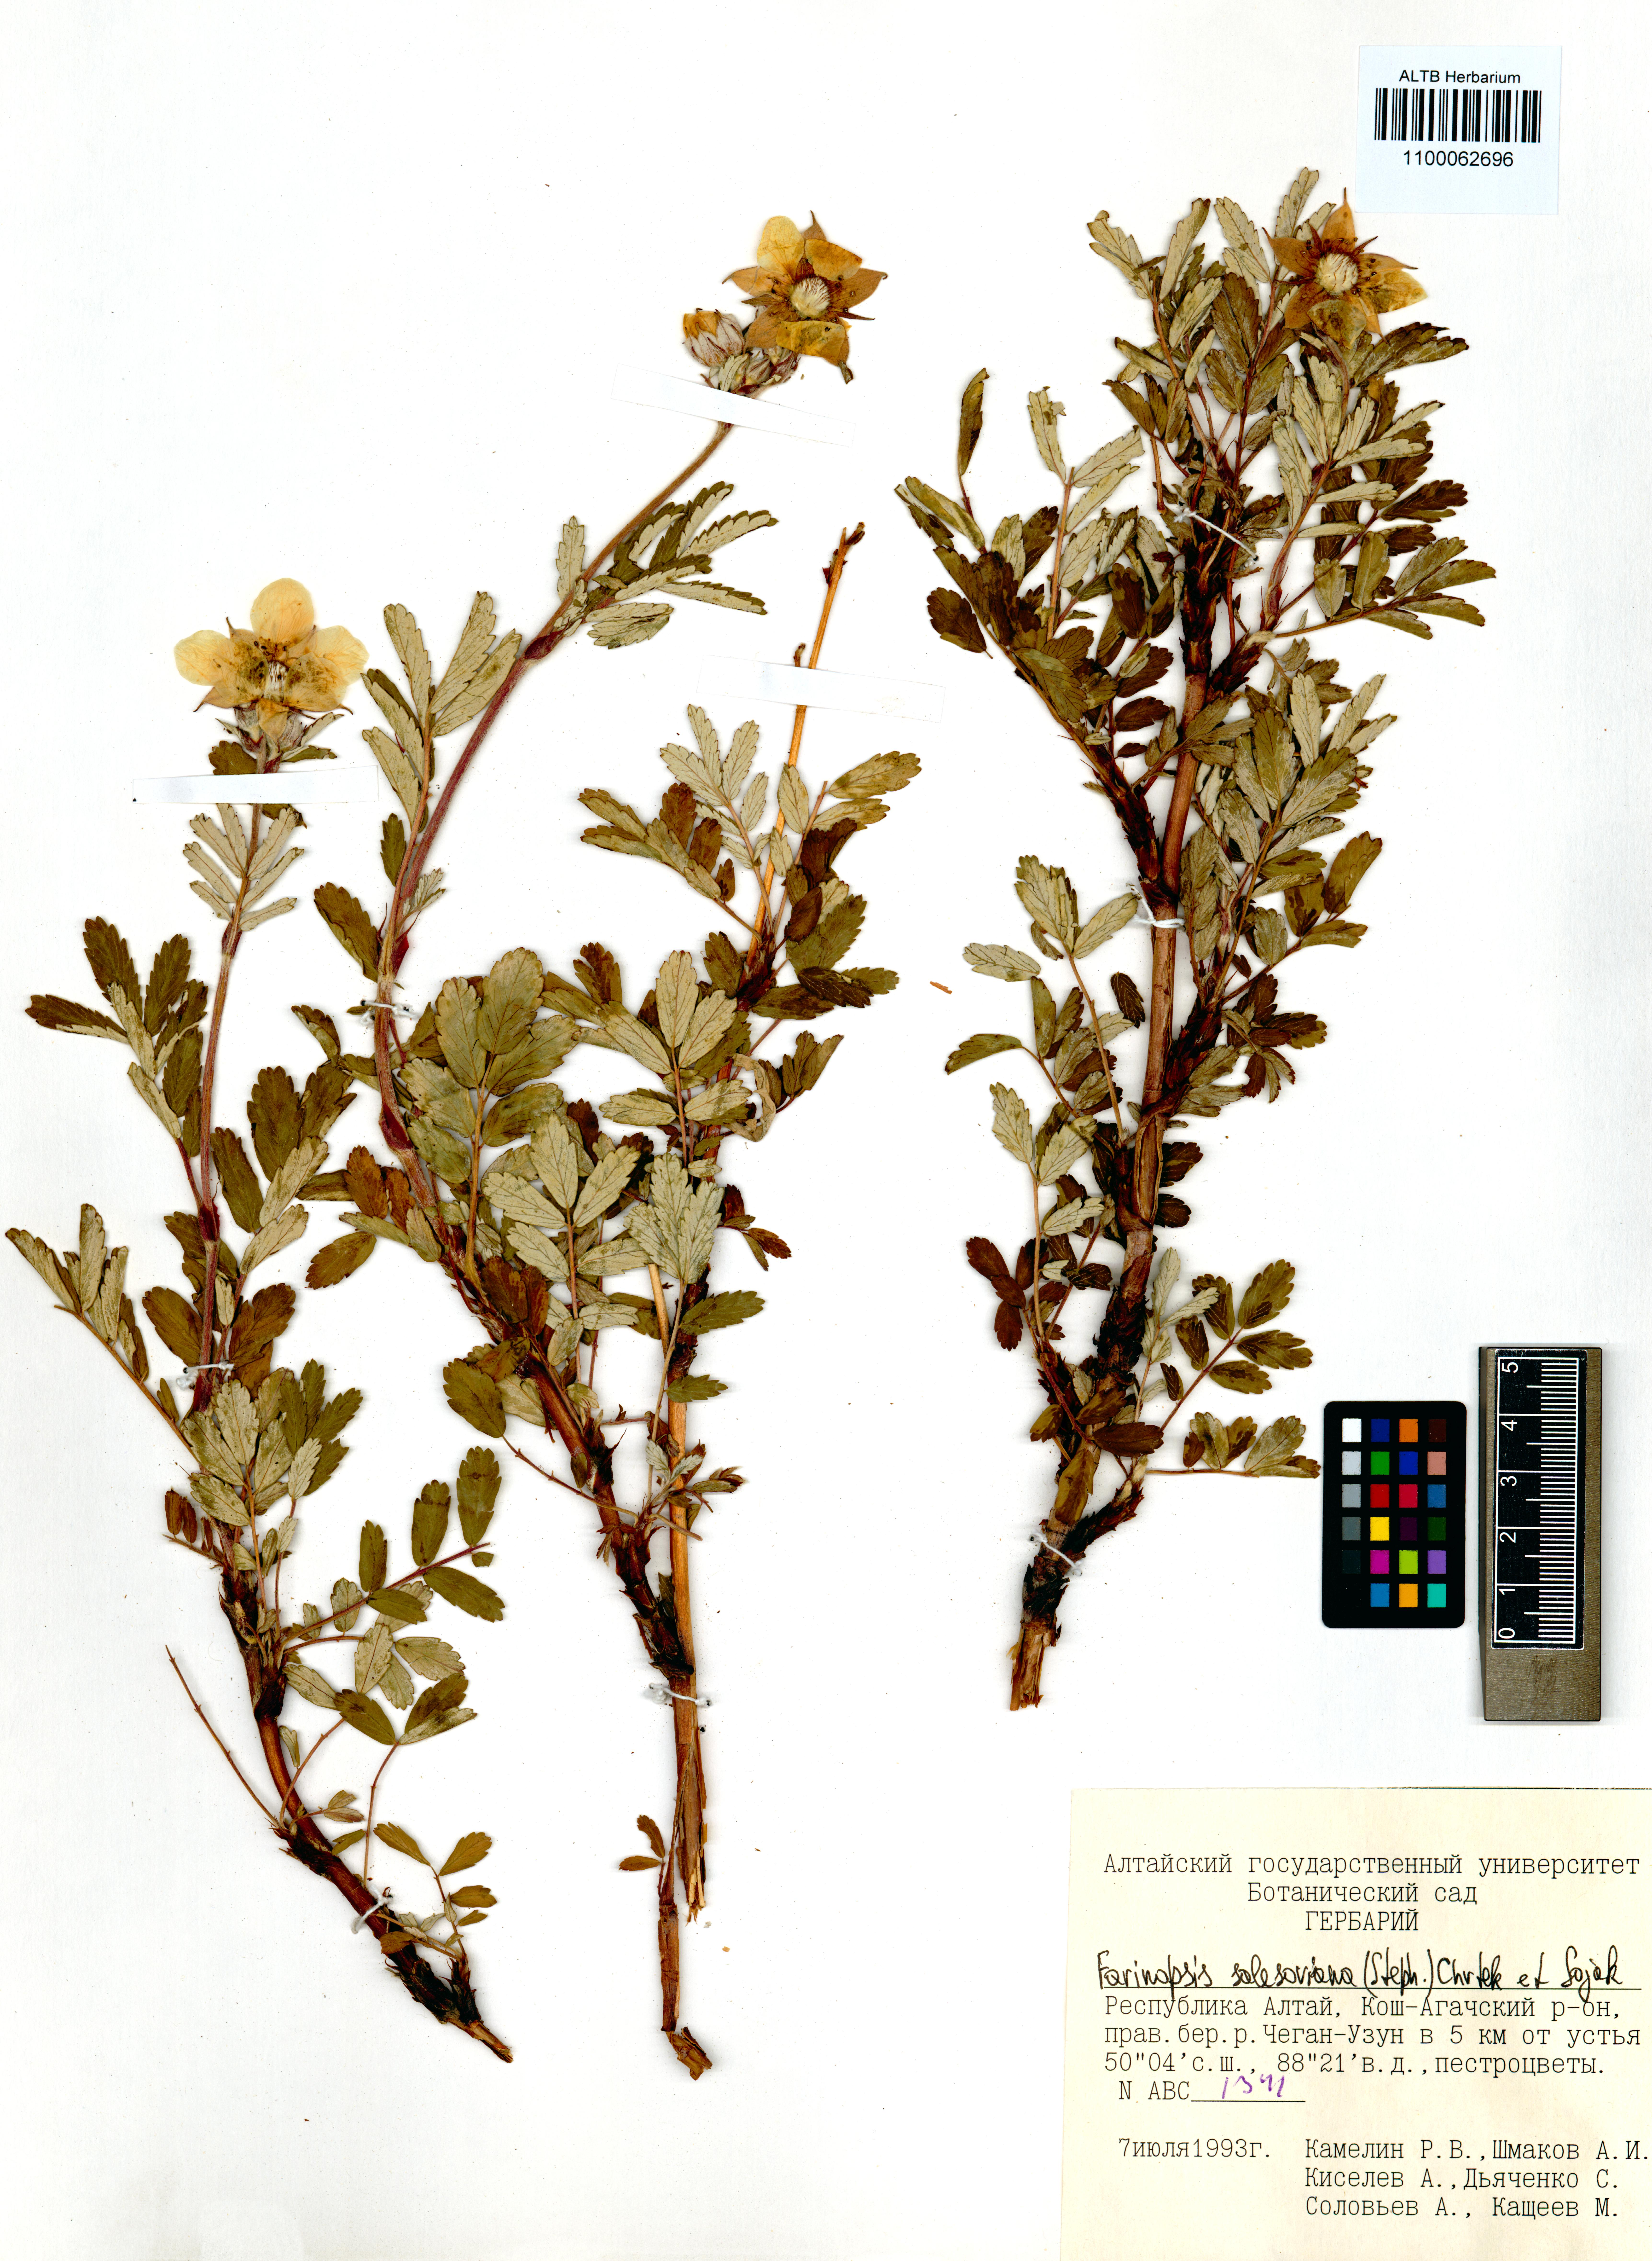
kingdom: Plantae
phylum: Tracheophyta
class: Magnoliopsida
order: Rosales
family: Rosaceae
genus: Farinopsis
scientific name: Farinopsis salesoviana
